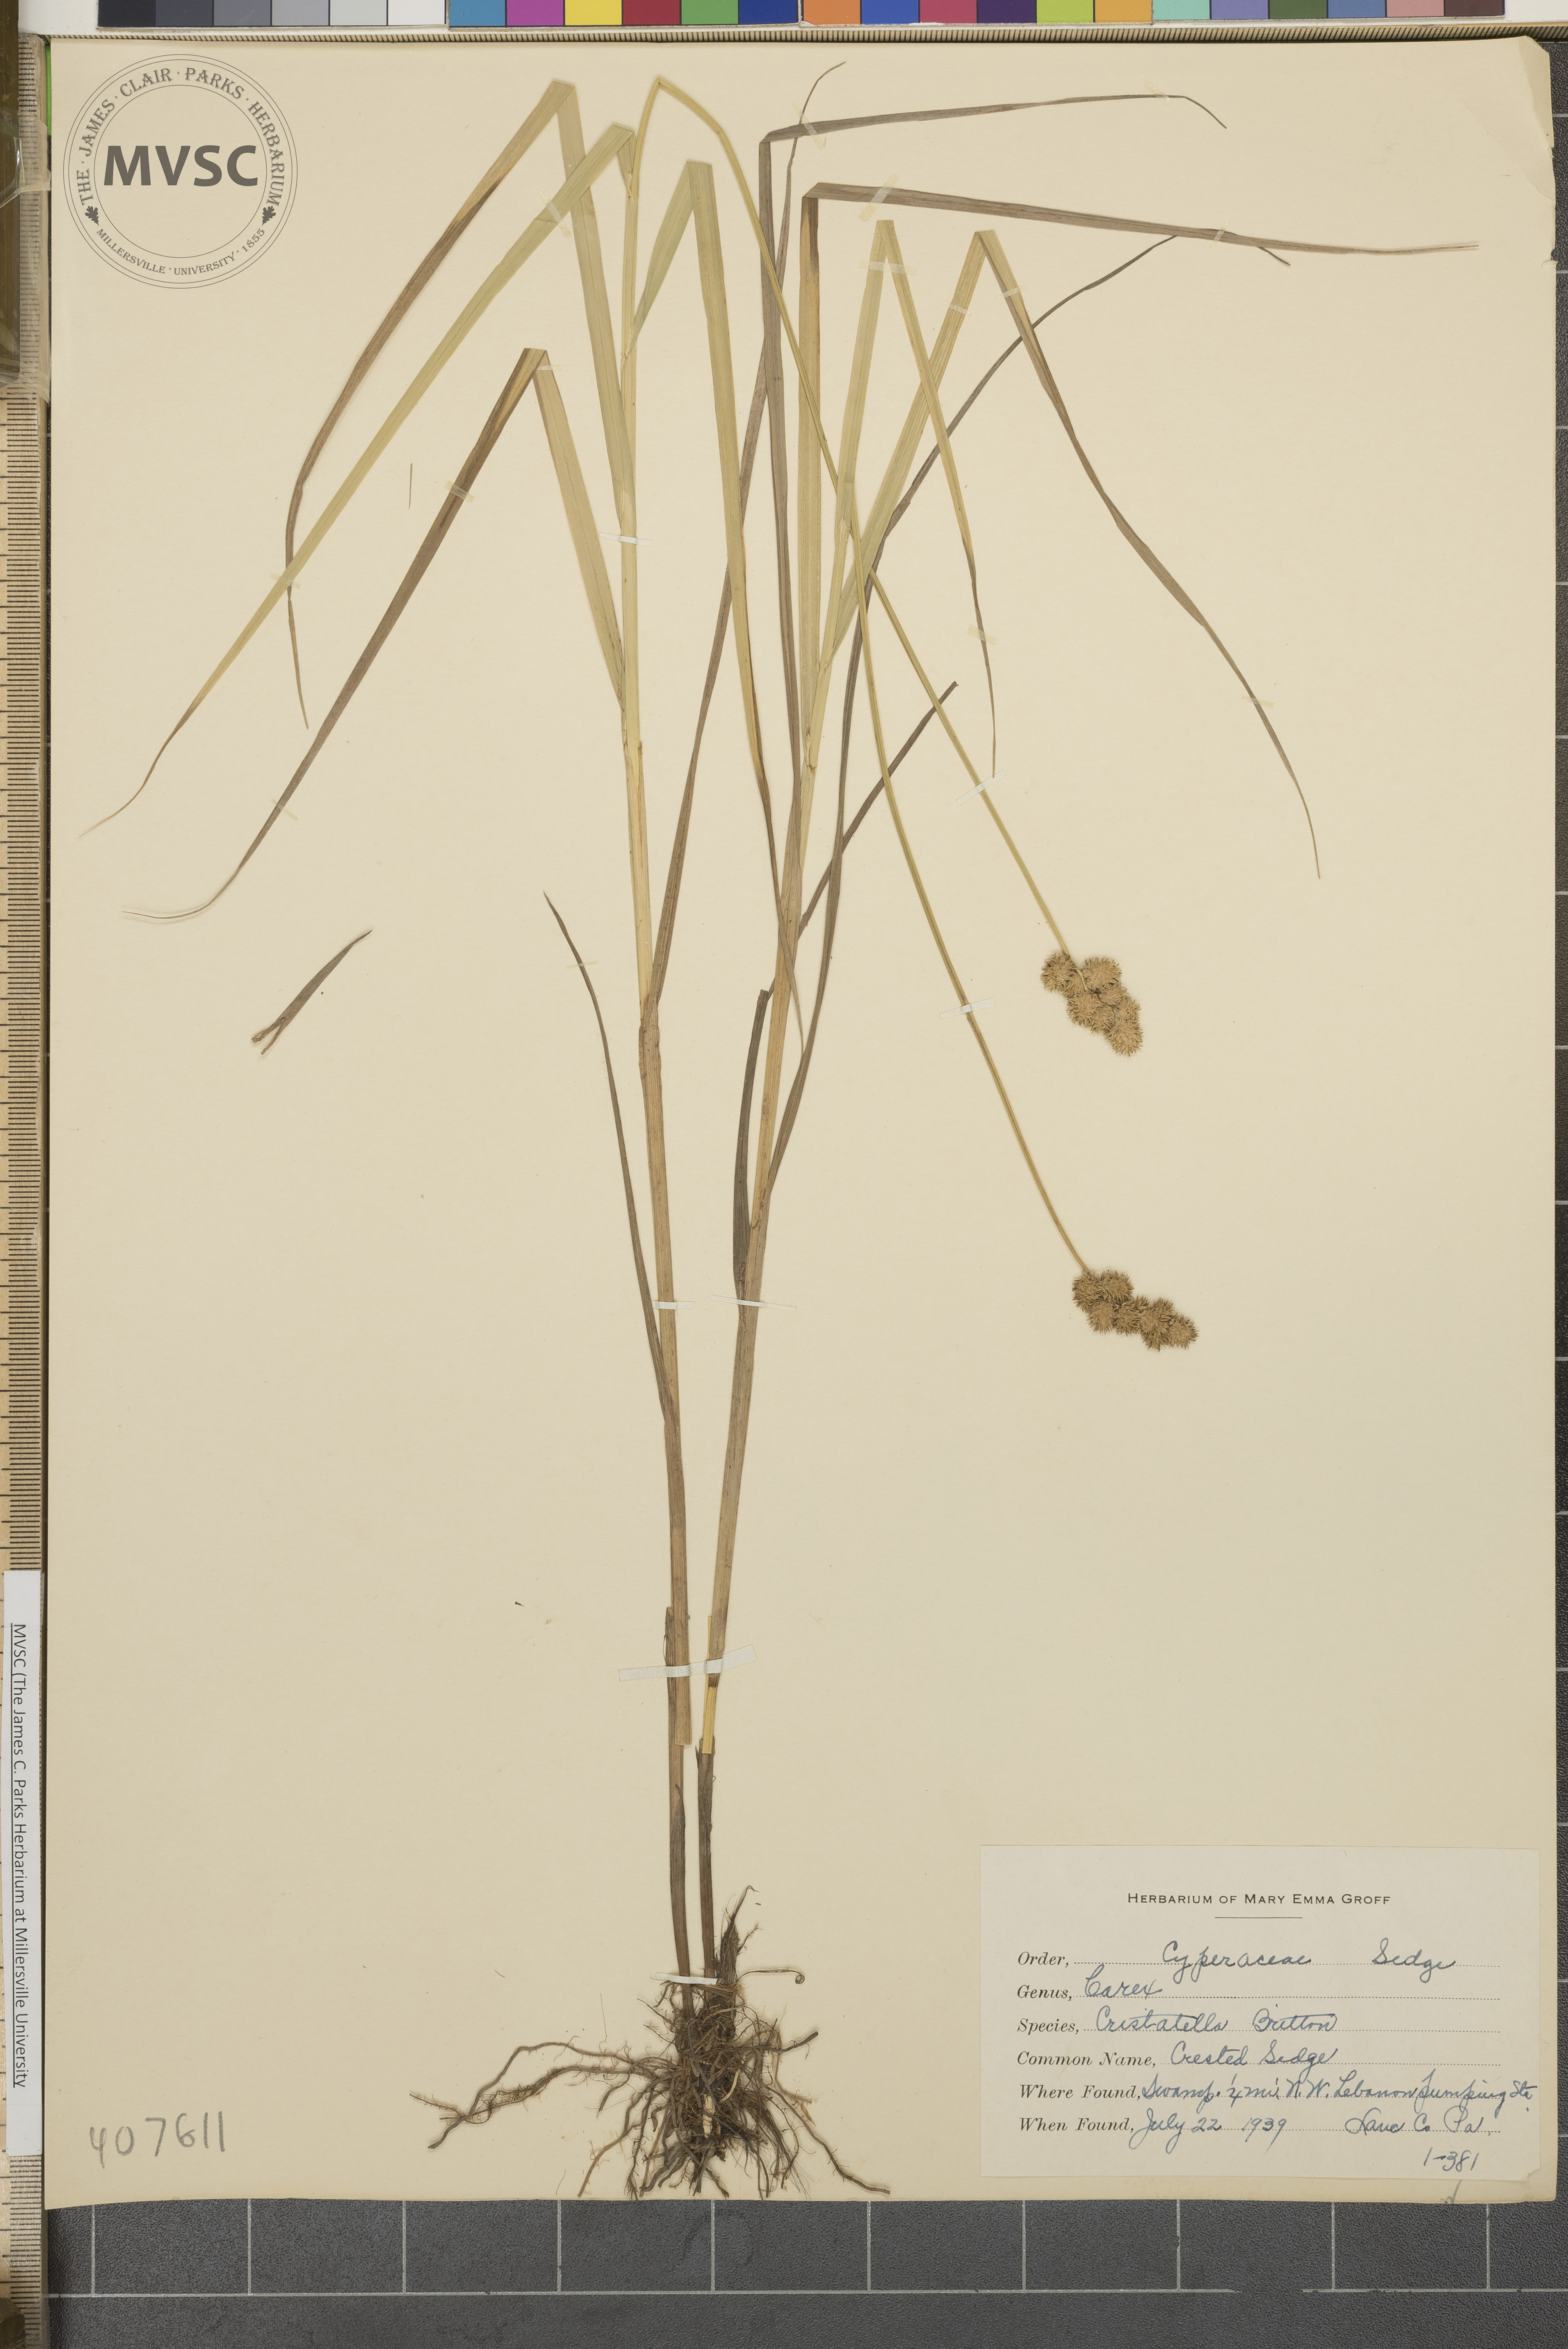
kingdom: Plantae
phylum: Tracheophyta
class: Liliopsida
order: Poales
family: Cyperaceae
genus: Carex
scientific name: Carex cristatella
